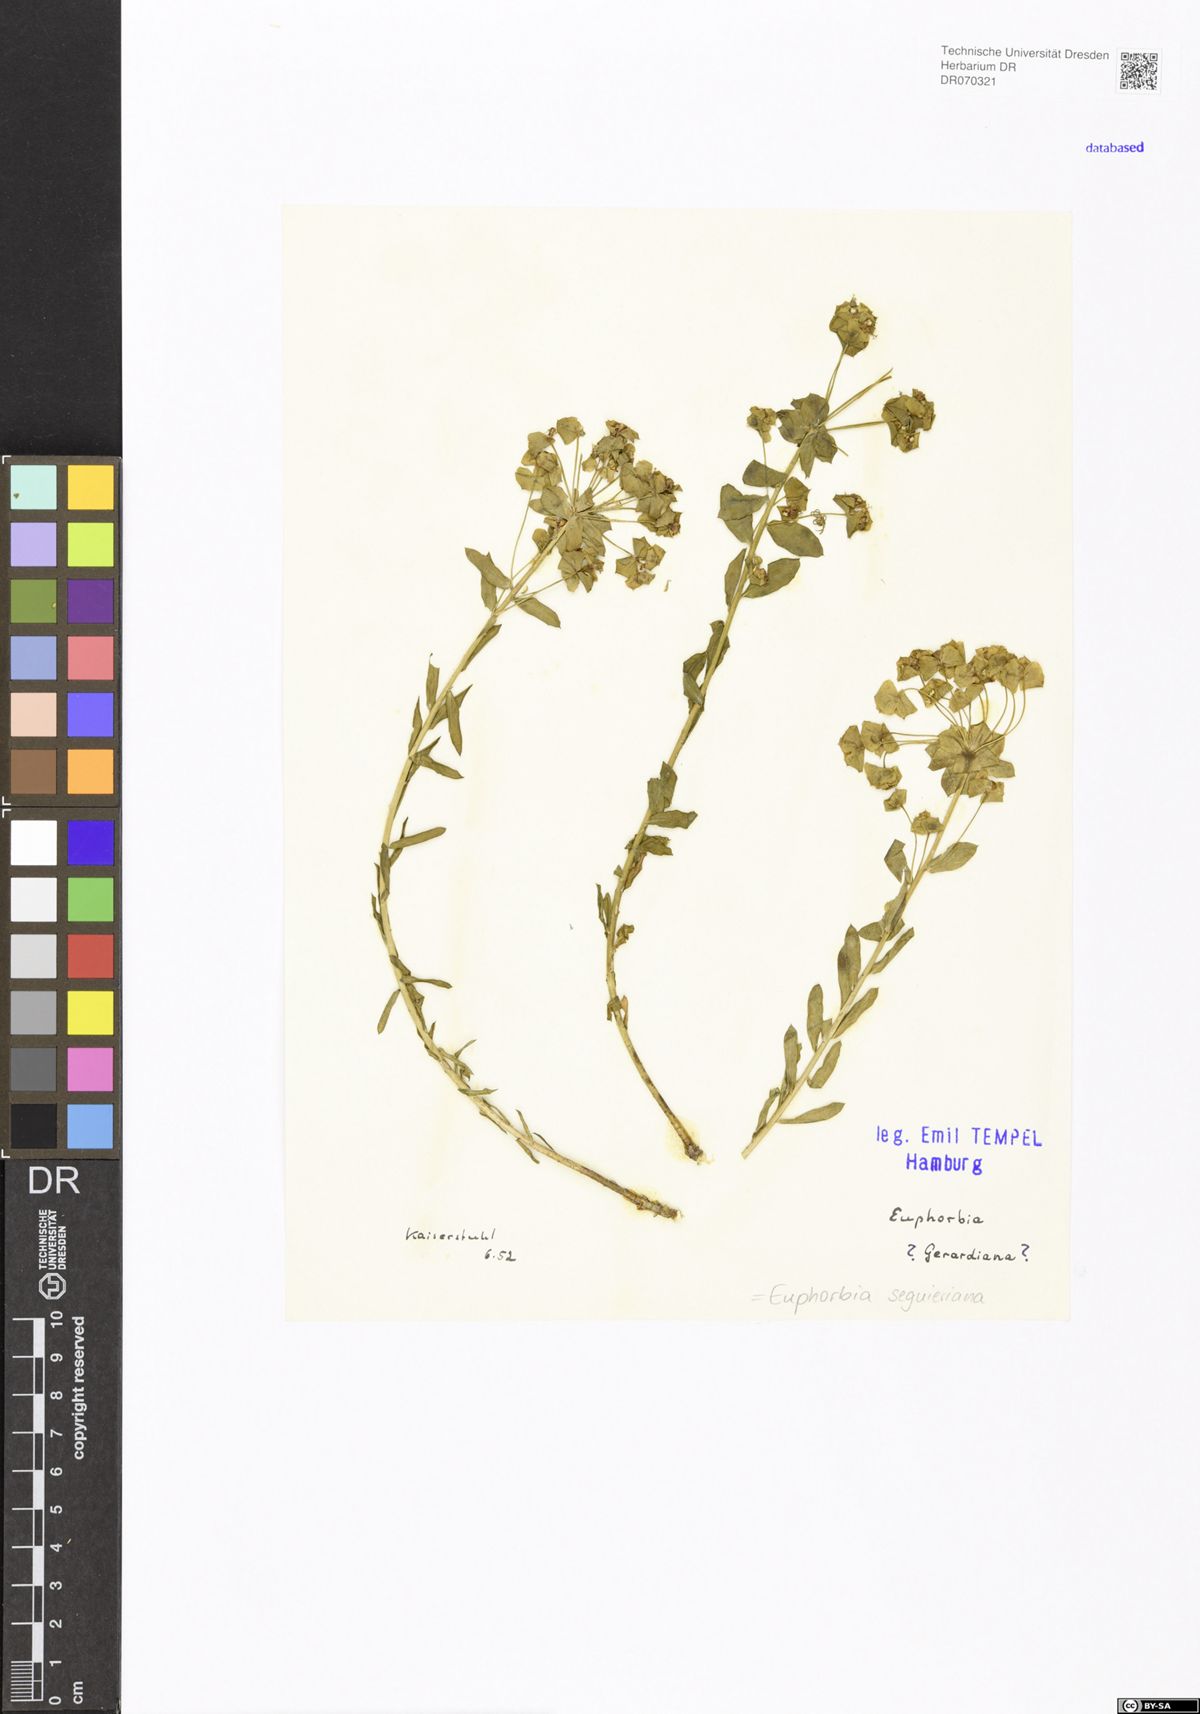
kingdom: Plantae
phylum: Tracheophyta
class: Magnoliopsida
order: Malpighiales
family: Euphorbiaceae
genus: Euphorbia
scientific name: Euphorbia seguieriana
